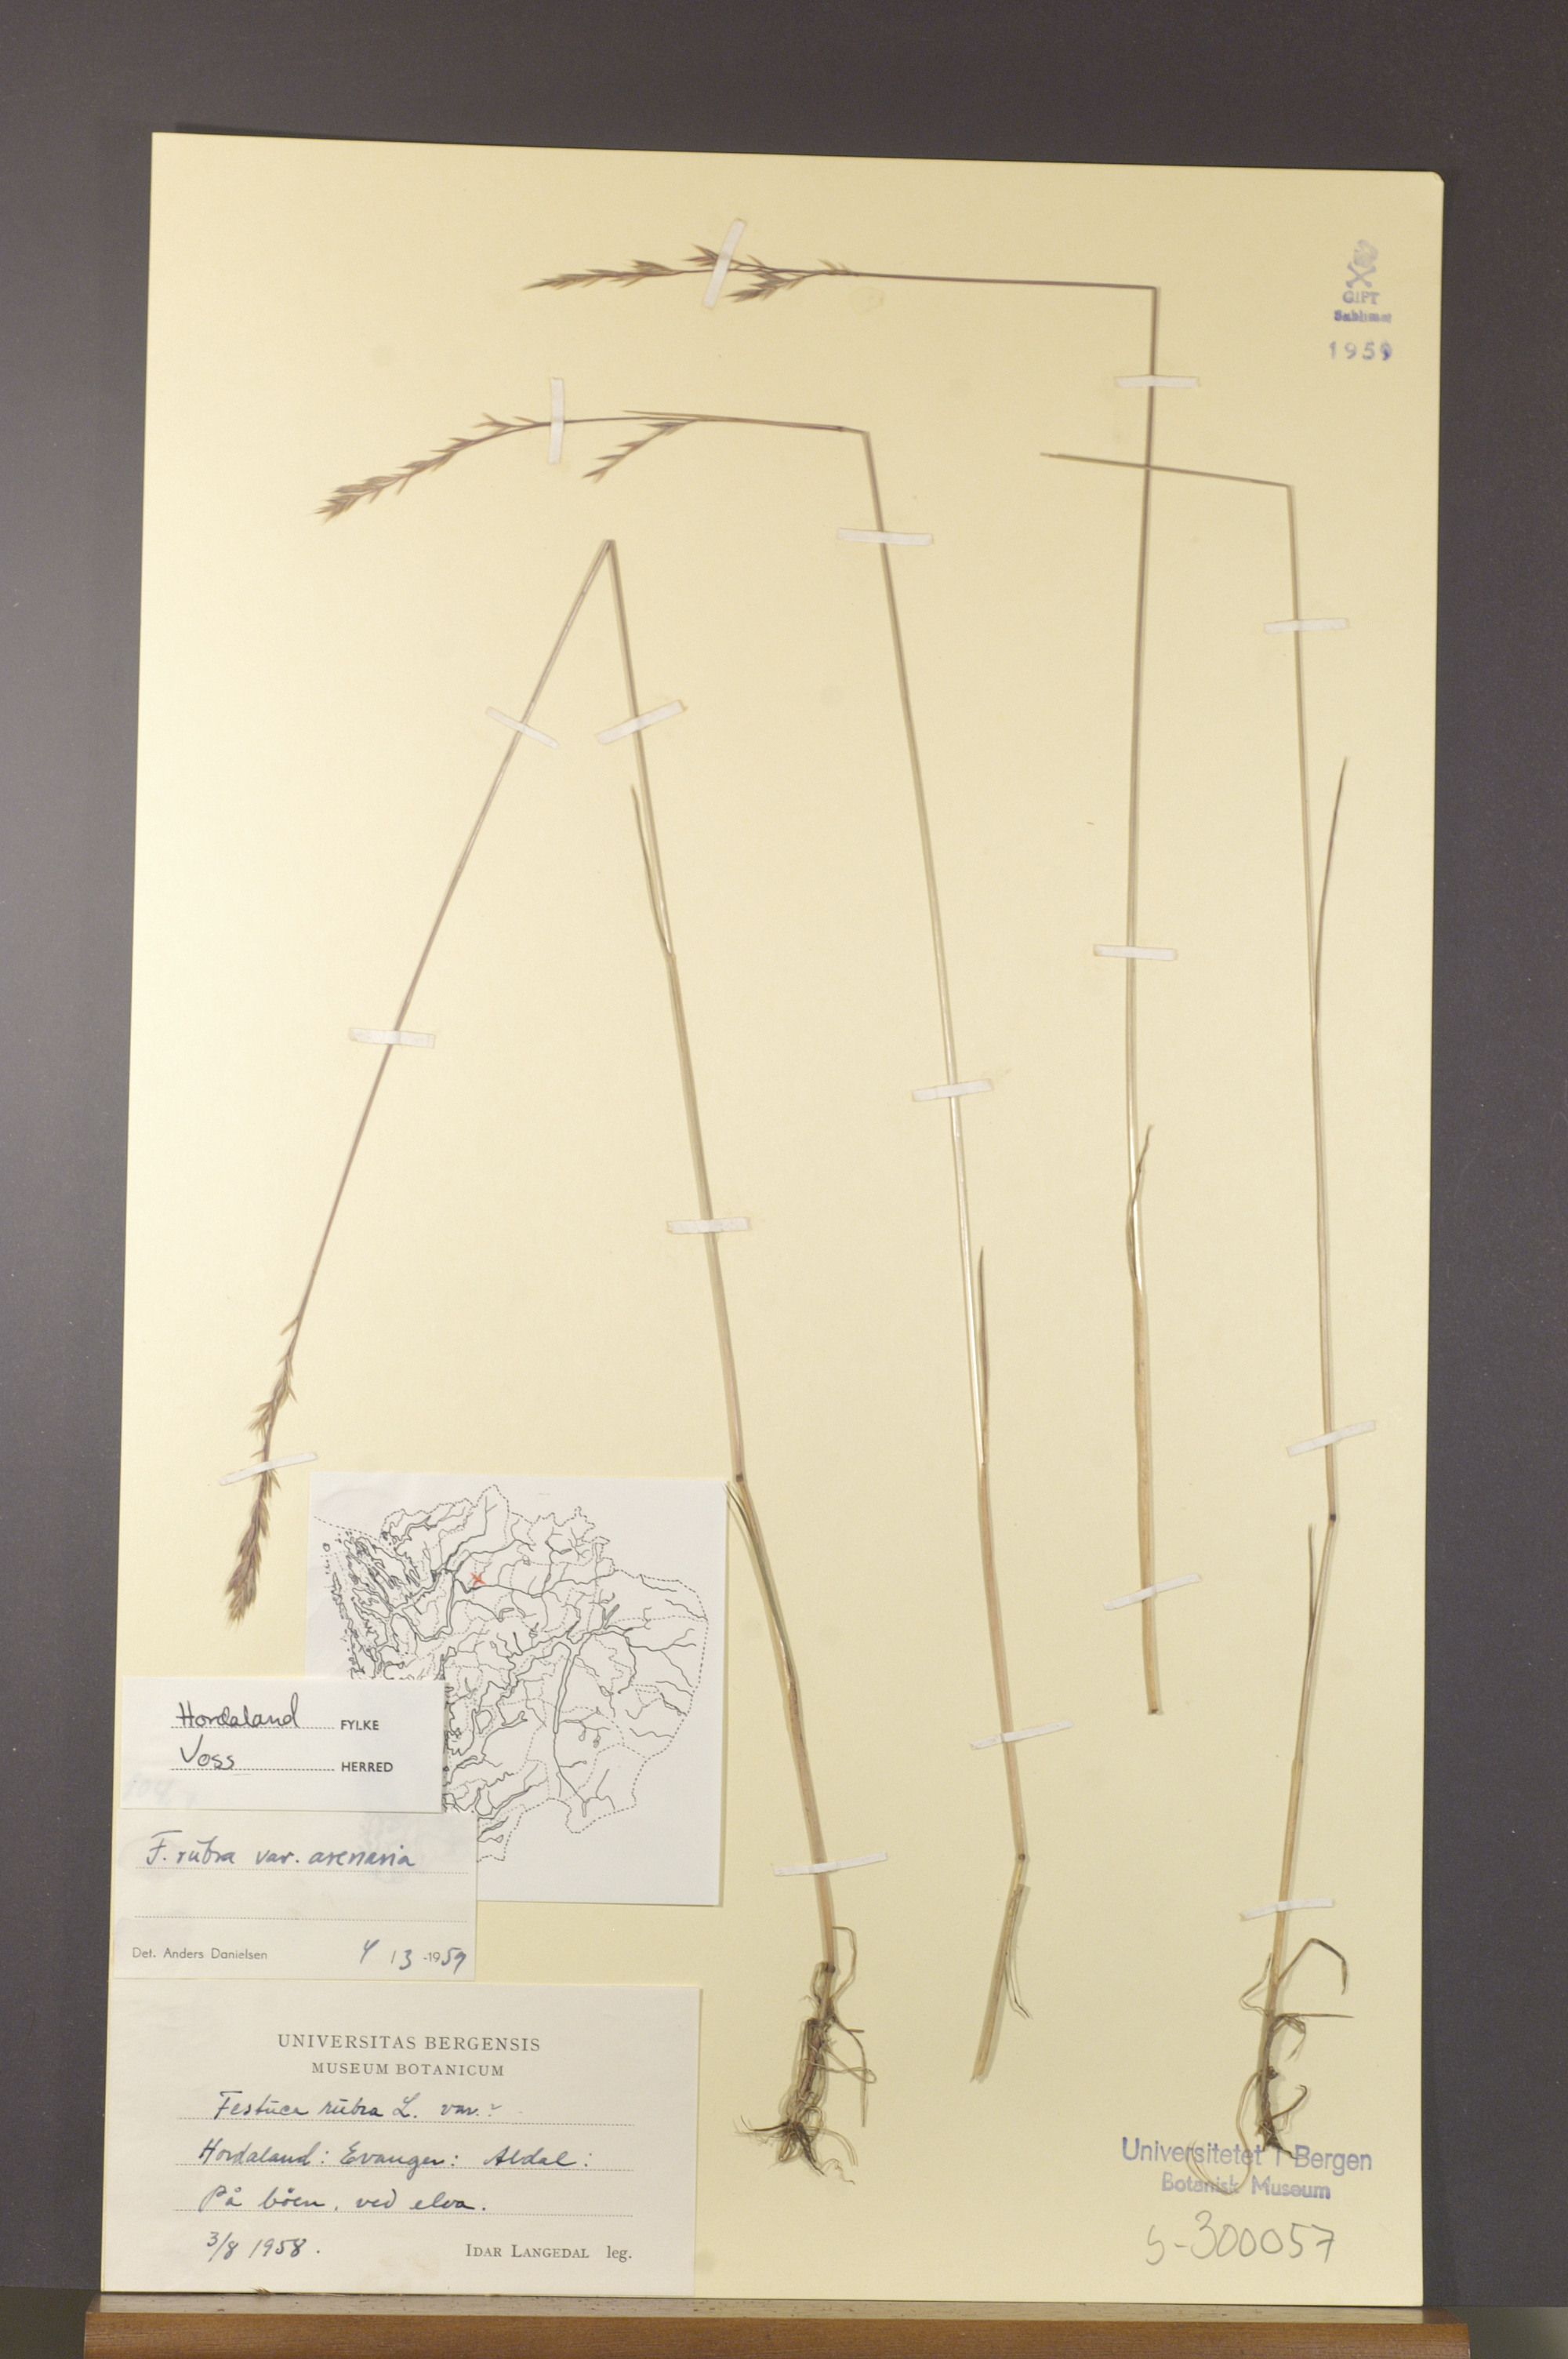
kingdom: Plantae
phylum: Tracheophyta
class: Liliopsida
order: Poales
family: Poaceae
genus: Festuca
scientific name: Festuca rubra
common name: Red fescue
